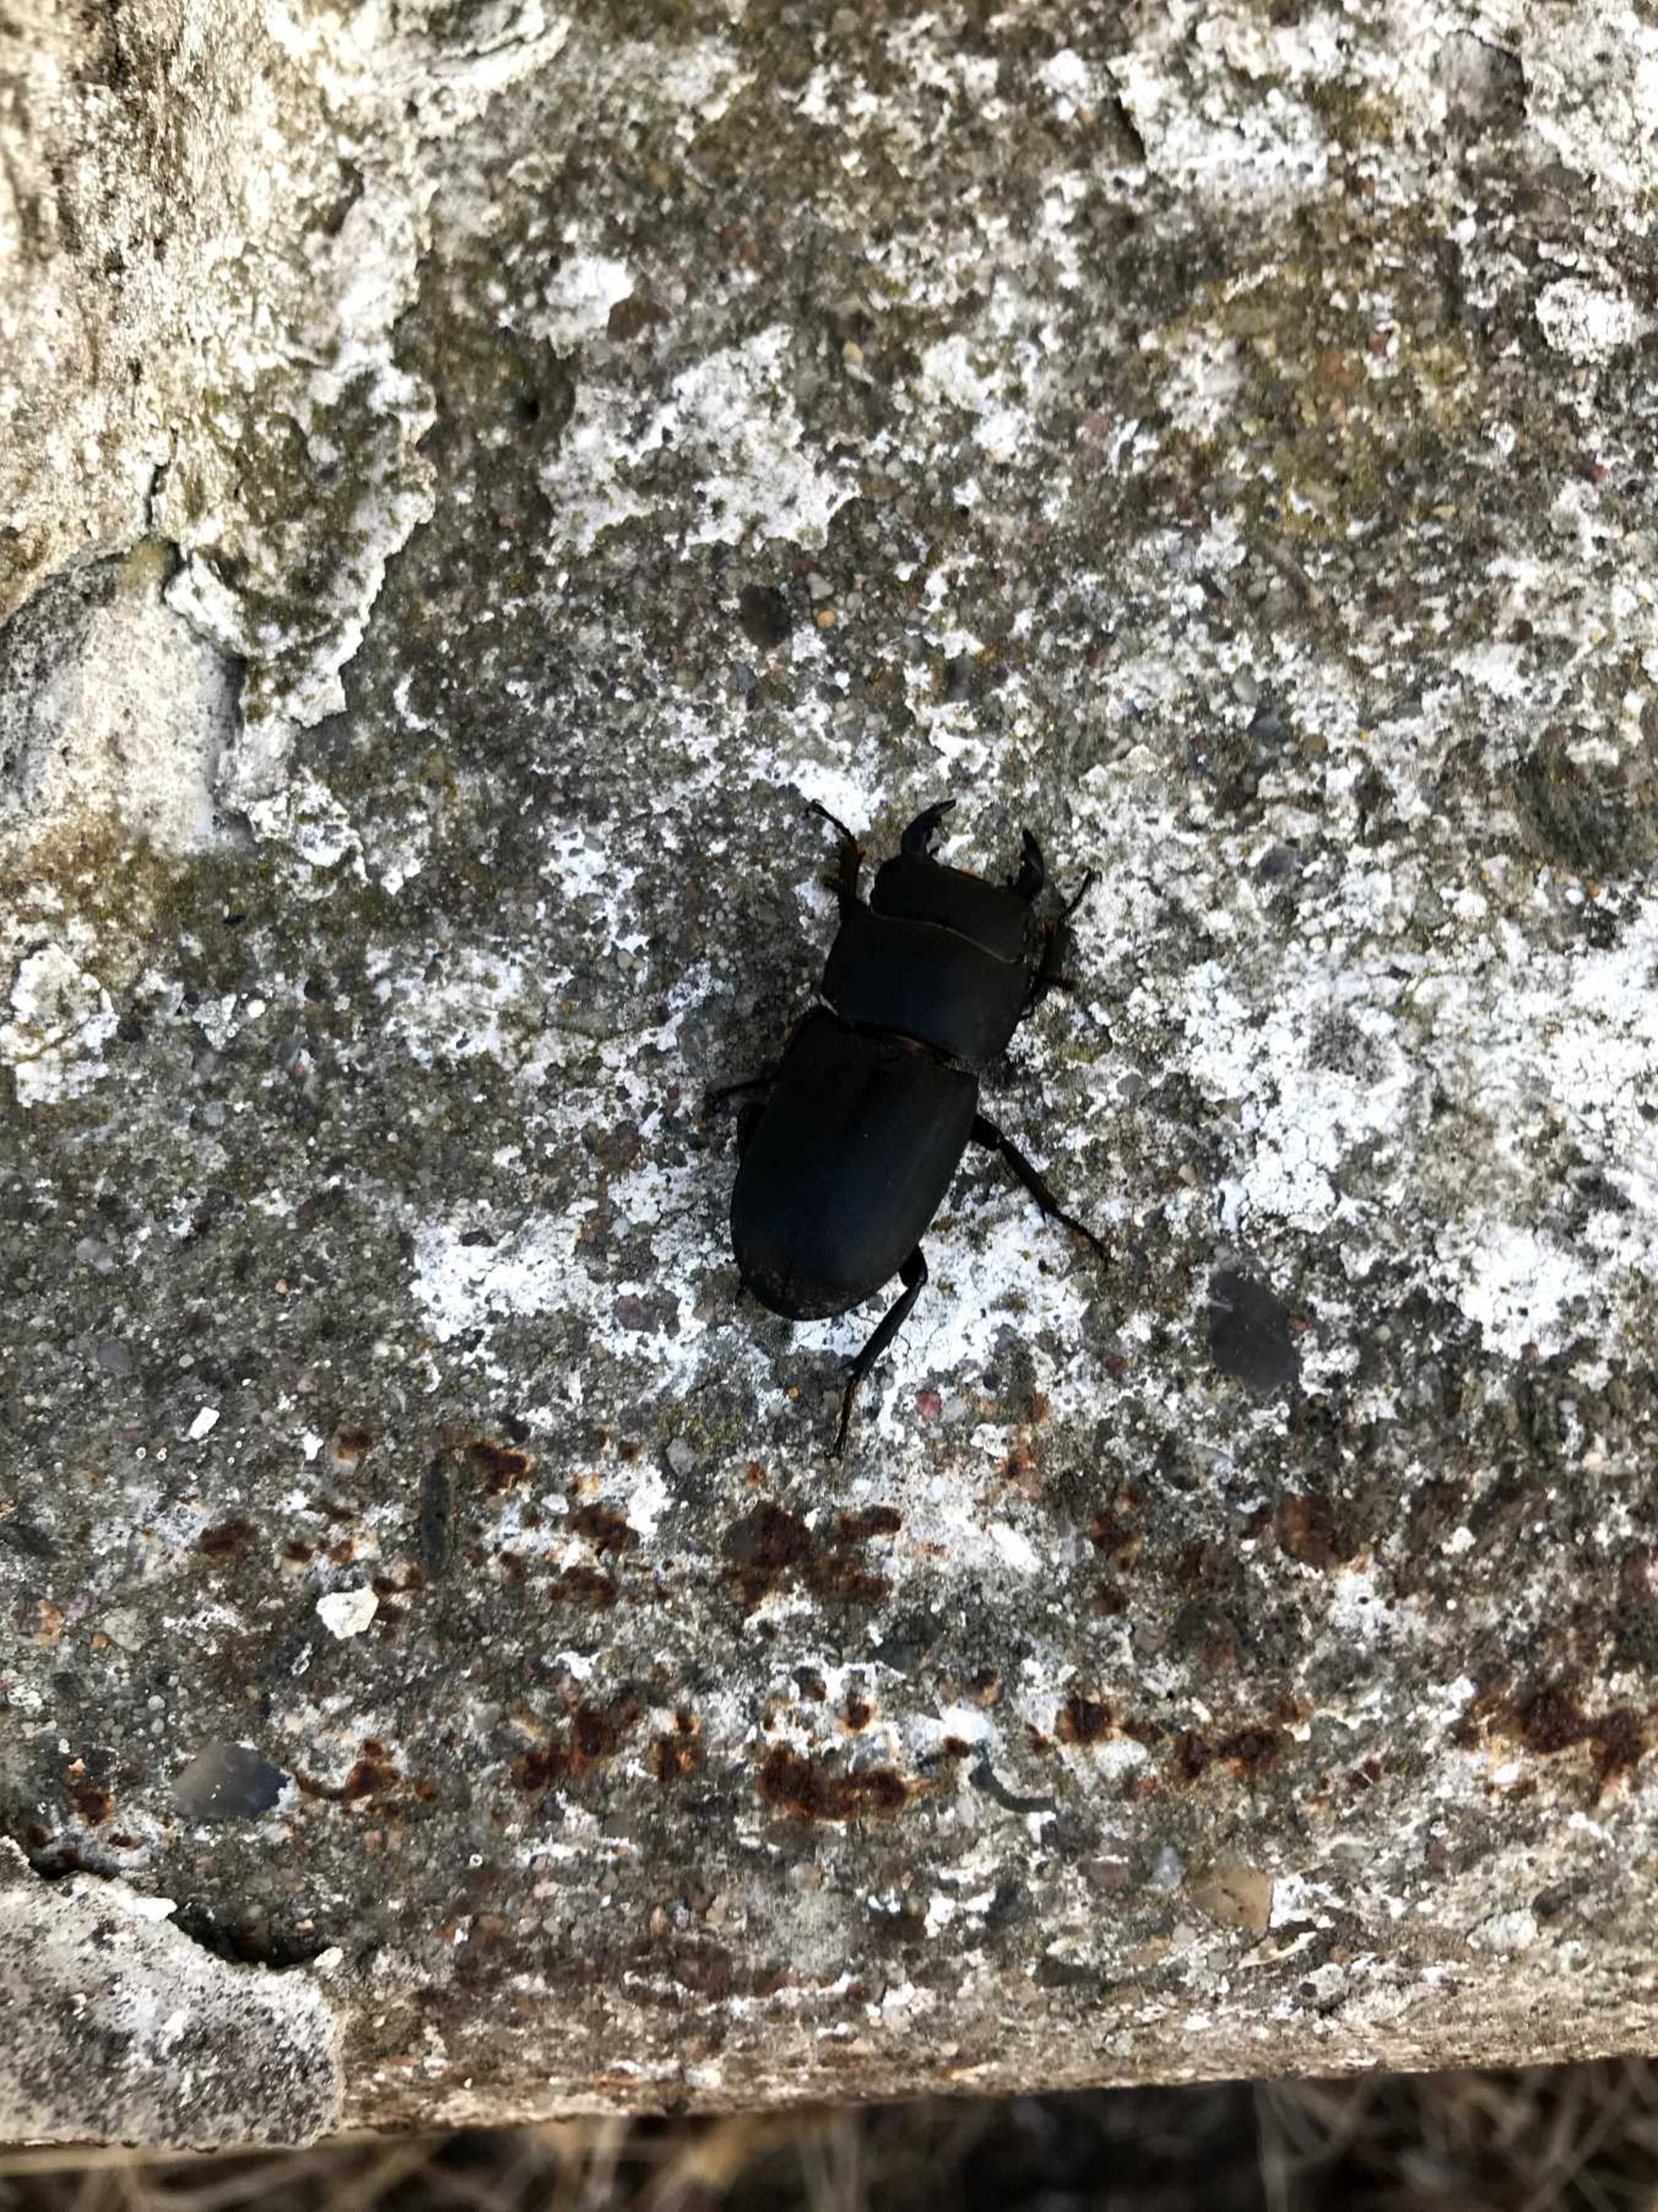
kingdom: Animalia
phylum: Arthropoda
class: Insecta
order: Coleoptera
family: Lucanidae
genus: Dorcus
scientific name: Dorcus parallelipipedus
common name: Bøghjort
